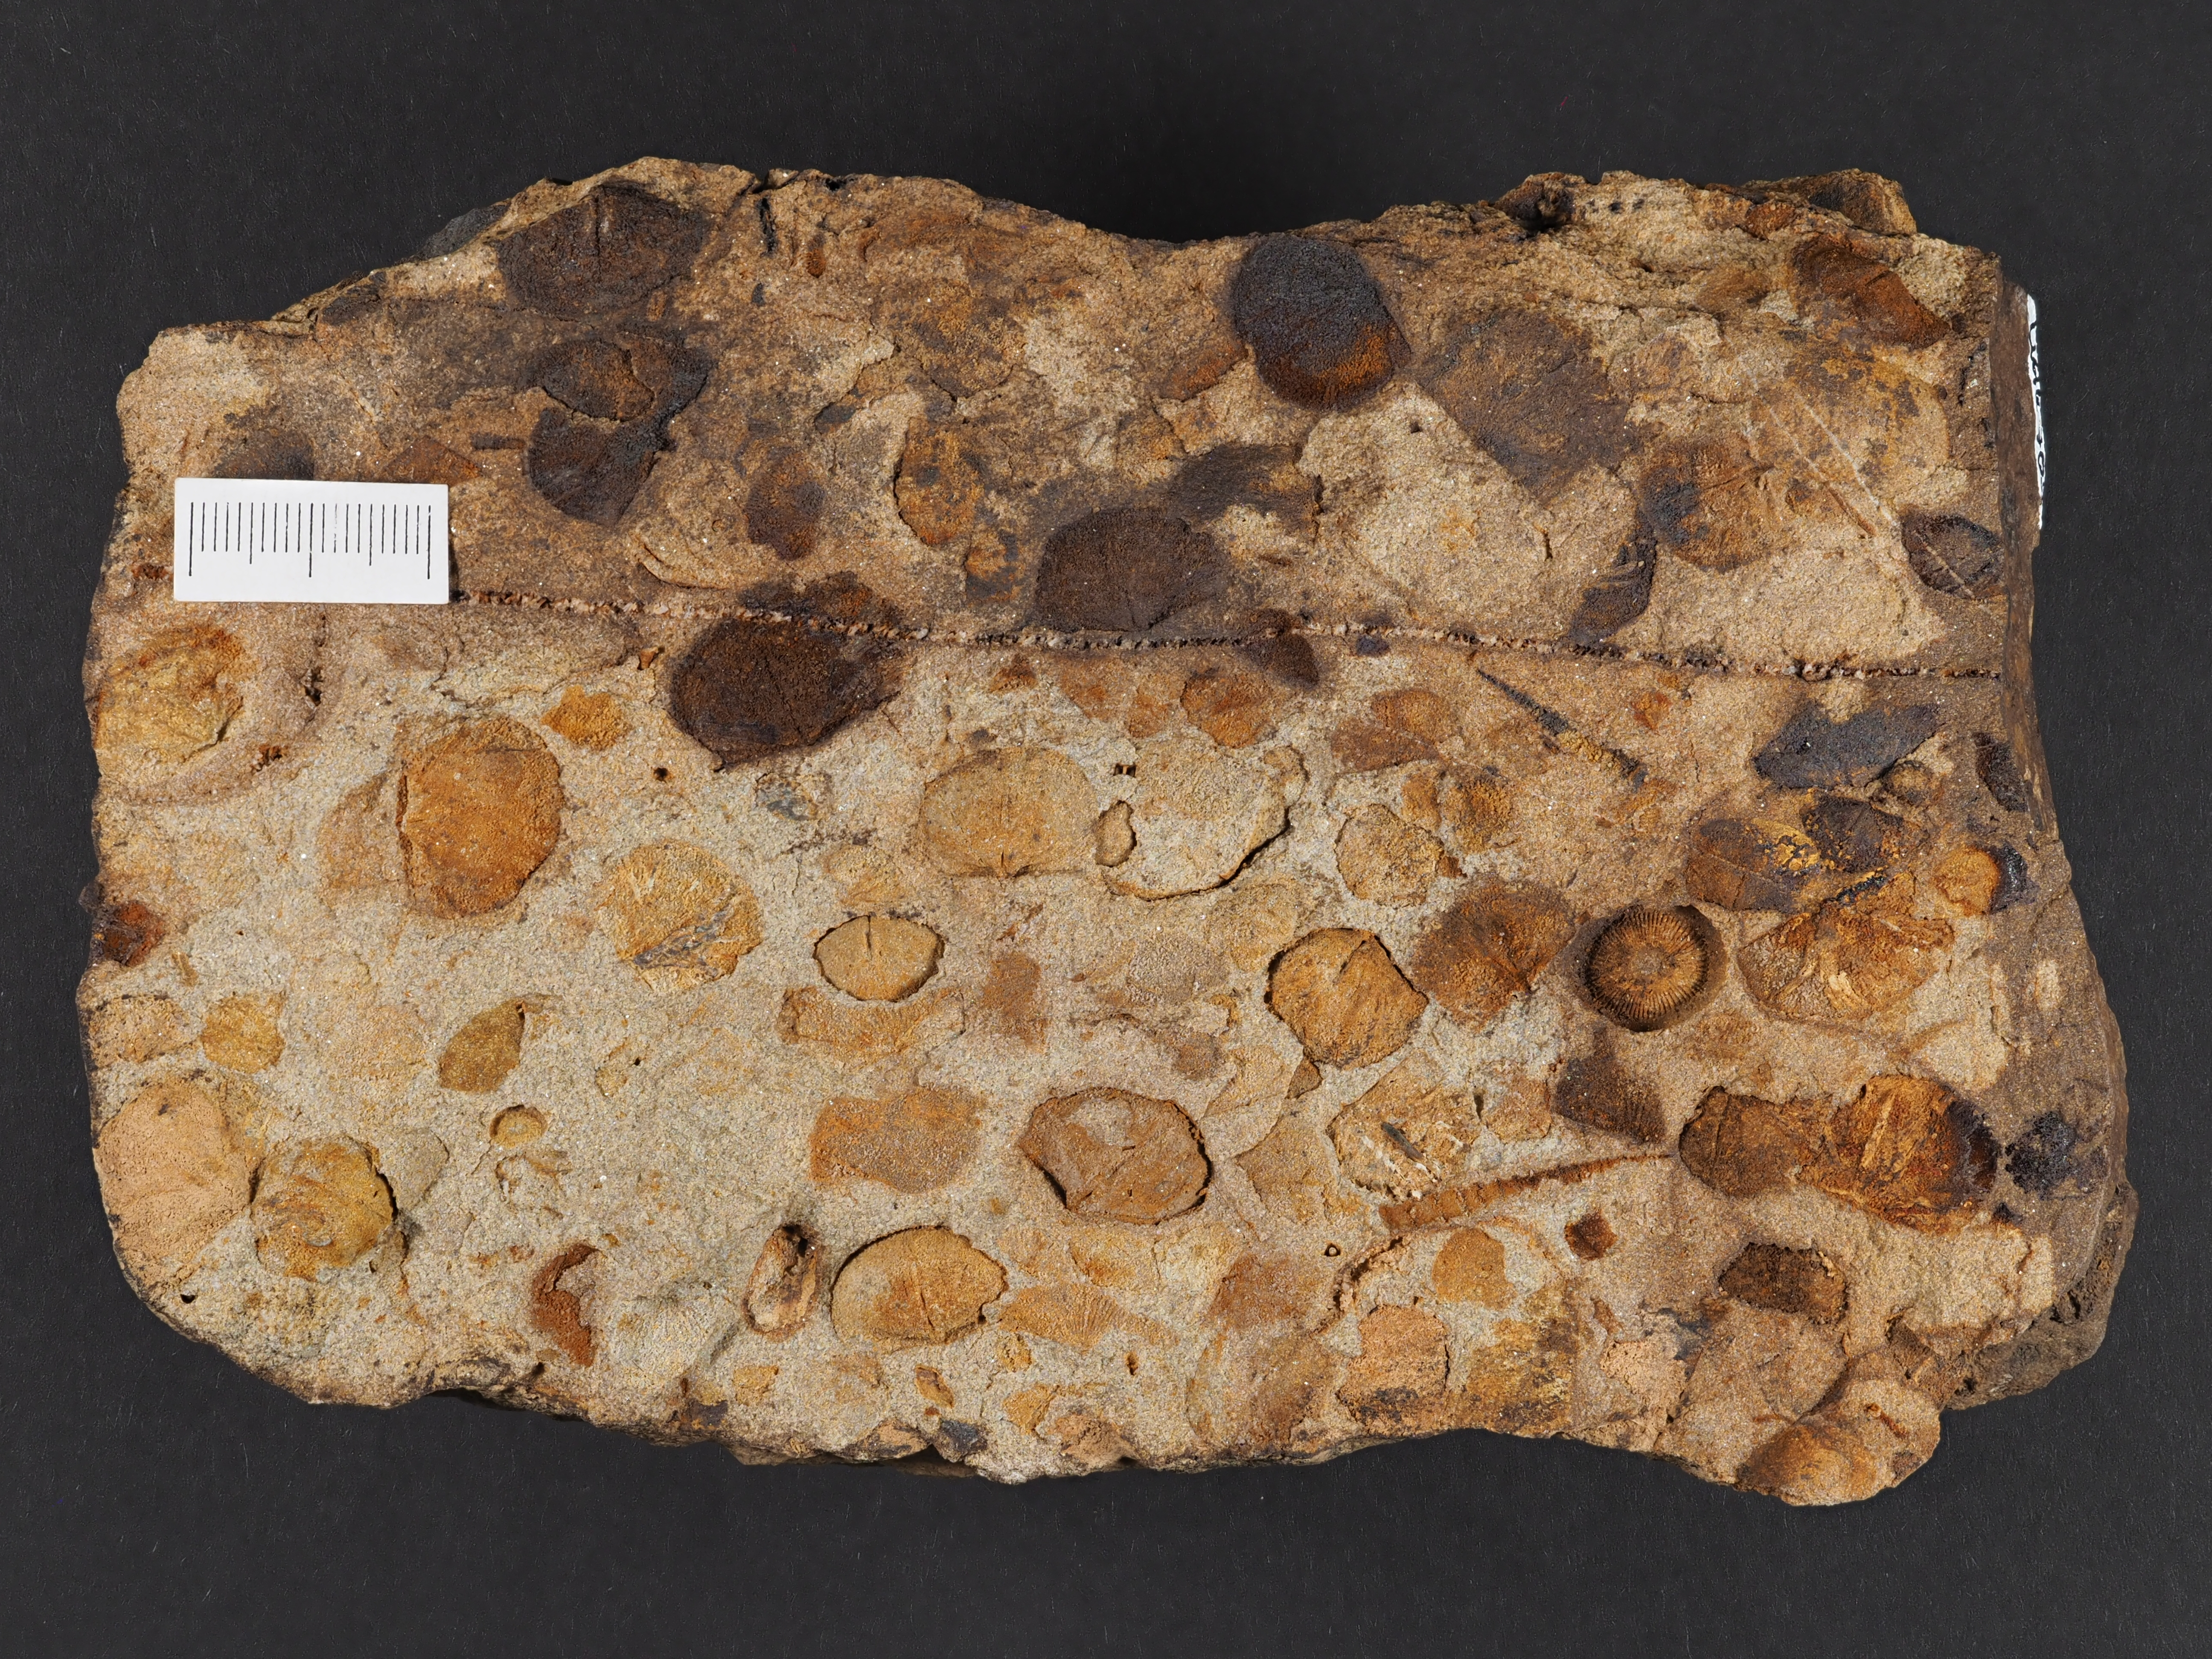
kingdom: Animalia
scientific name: Animalia
